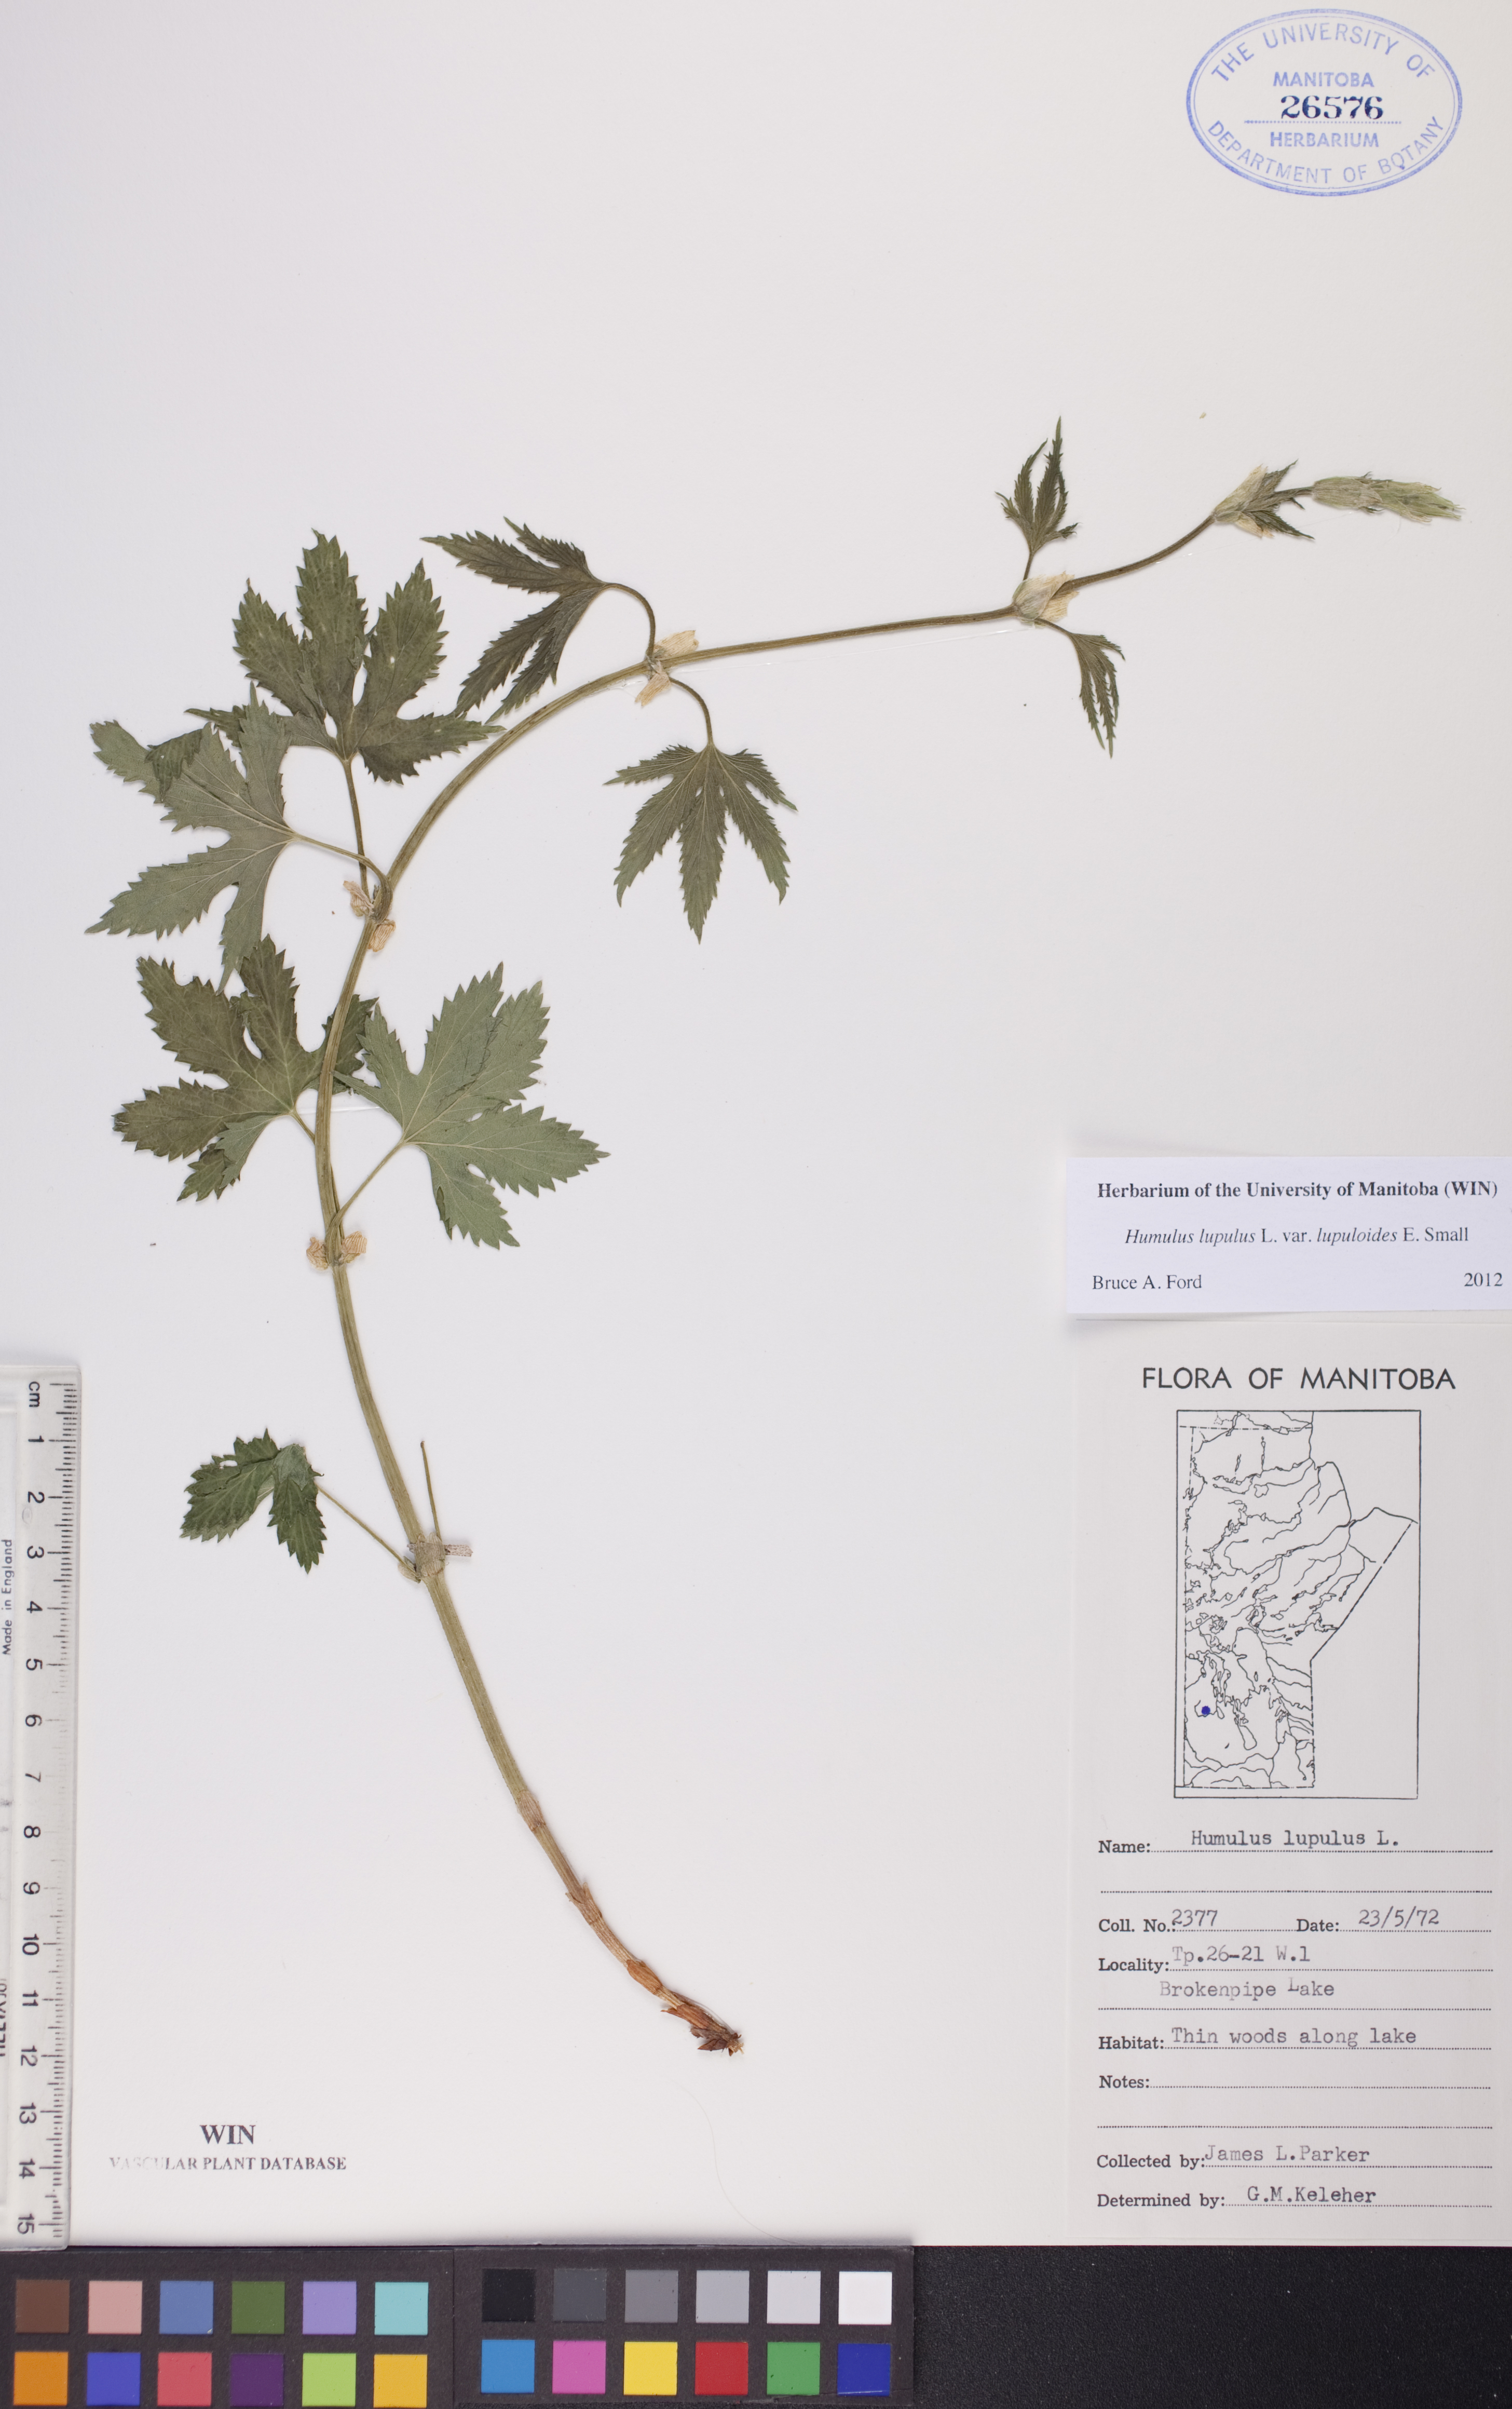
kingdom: Plantae
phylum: Tracheophyta
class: Magnoliopsida
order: Rosales
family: Cannabaceae
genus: Humulus
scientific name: Humulus americanus
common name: American hops
